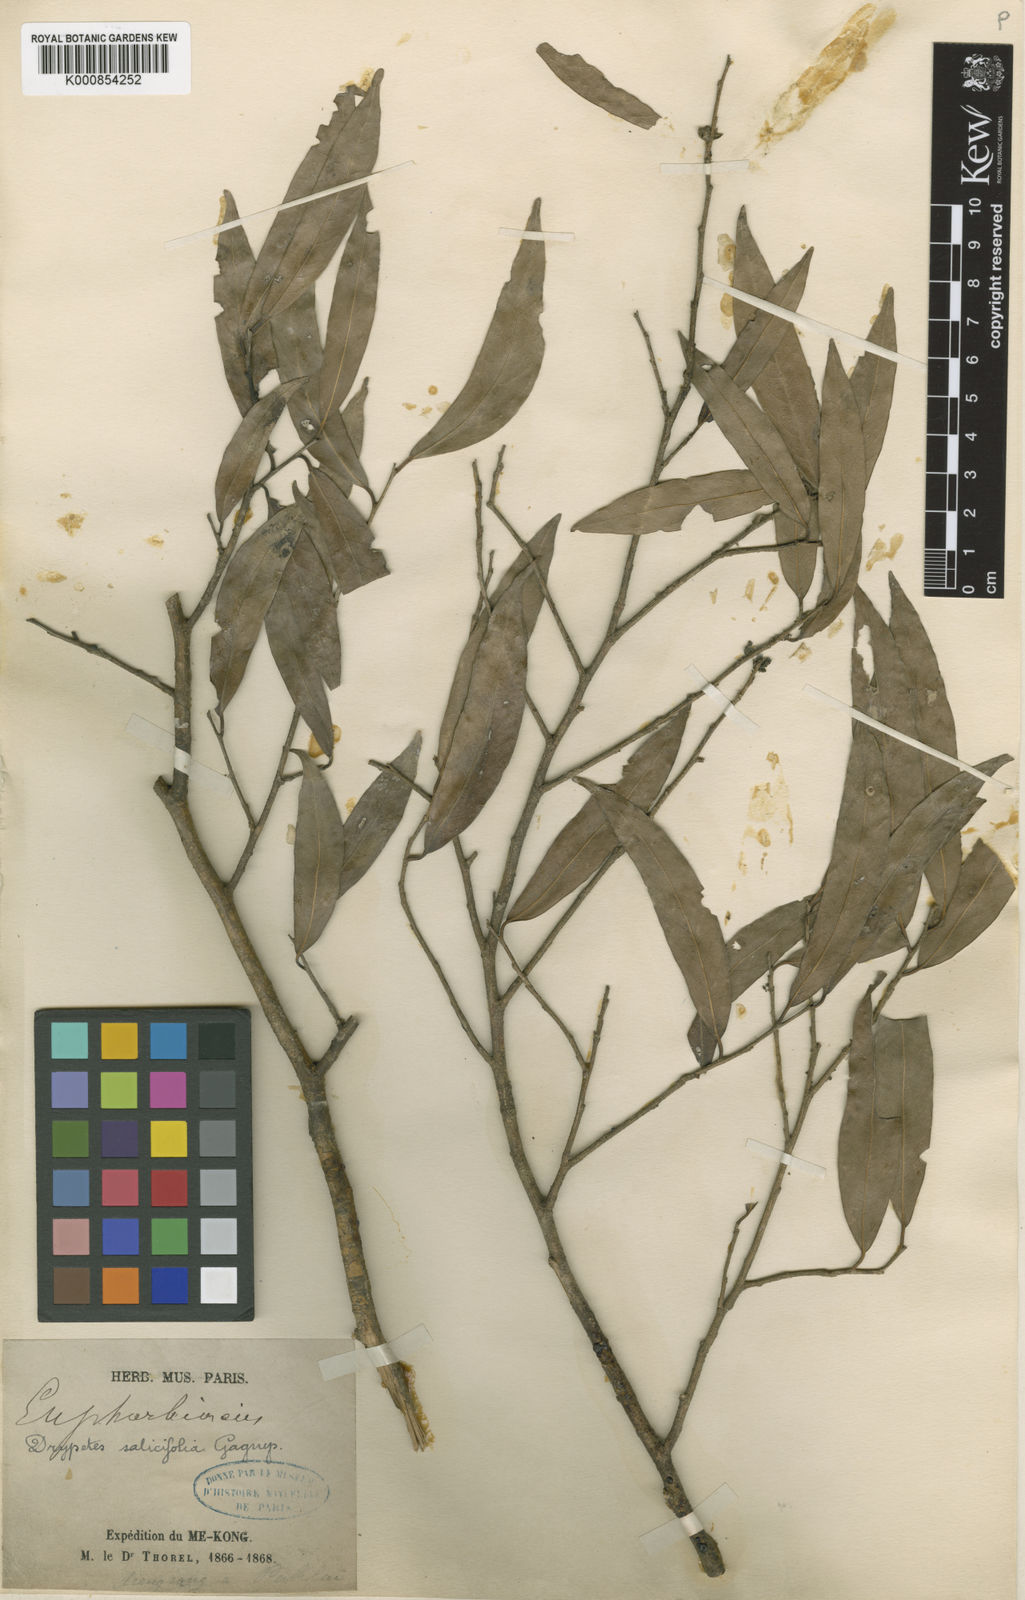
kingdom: Plantae
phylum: Tracheophyta
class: Magnoliopsida
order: Malpighiales
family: Putranjivaceae
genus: Drypetes
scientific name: Drypetes salicifolia
